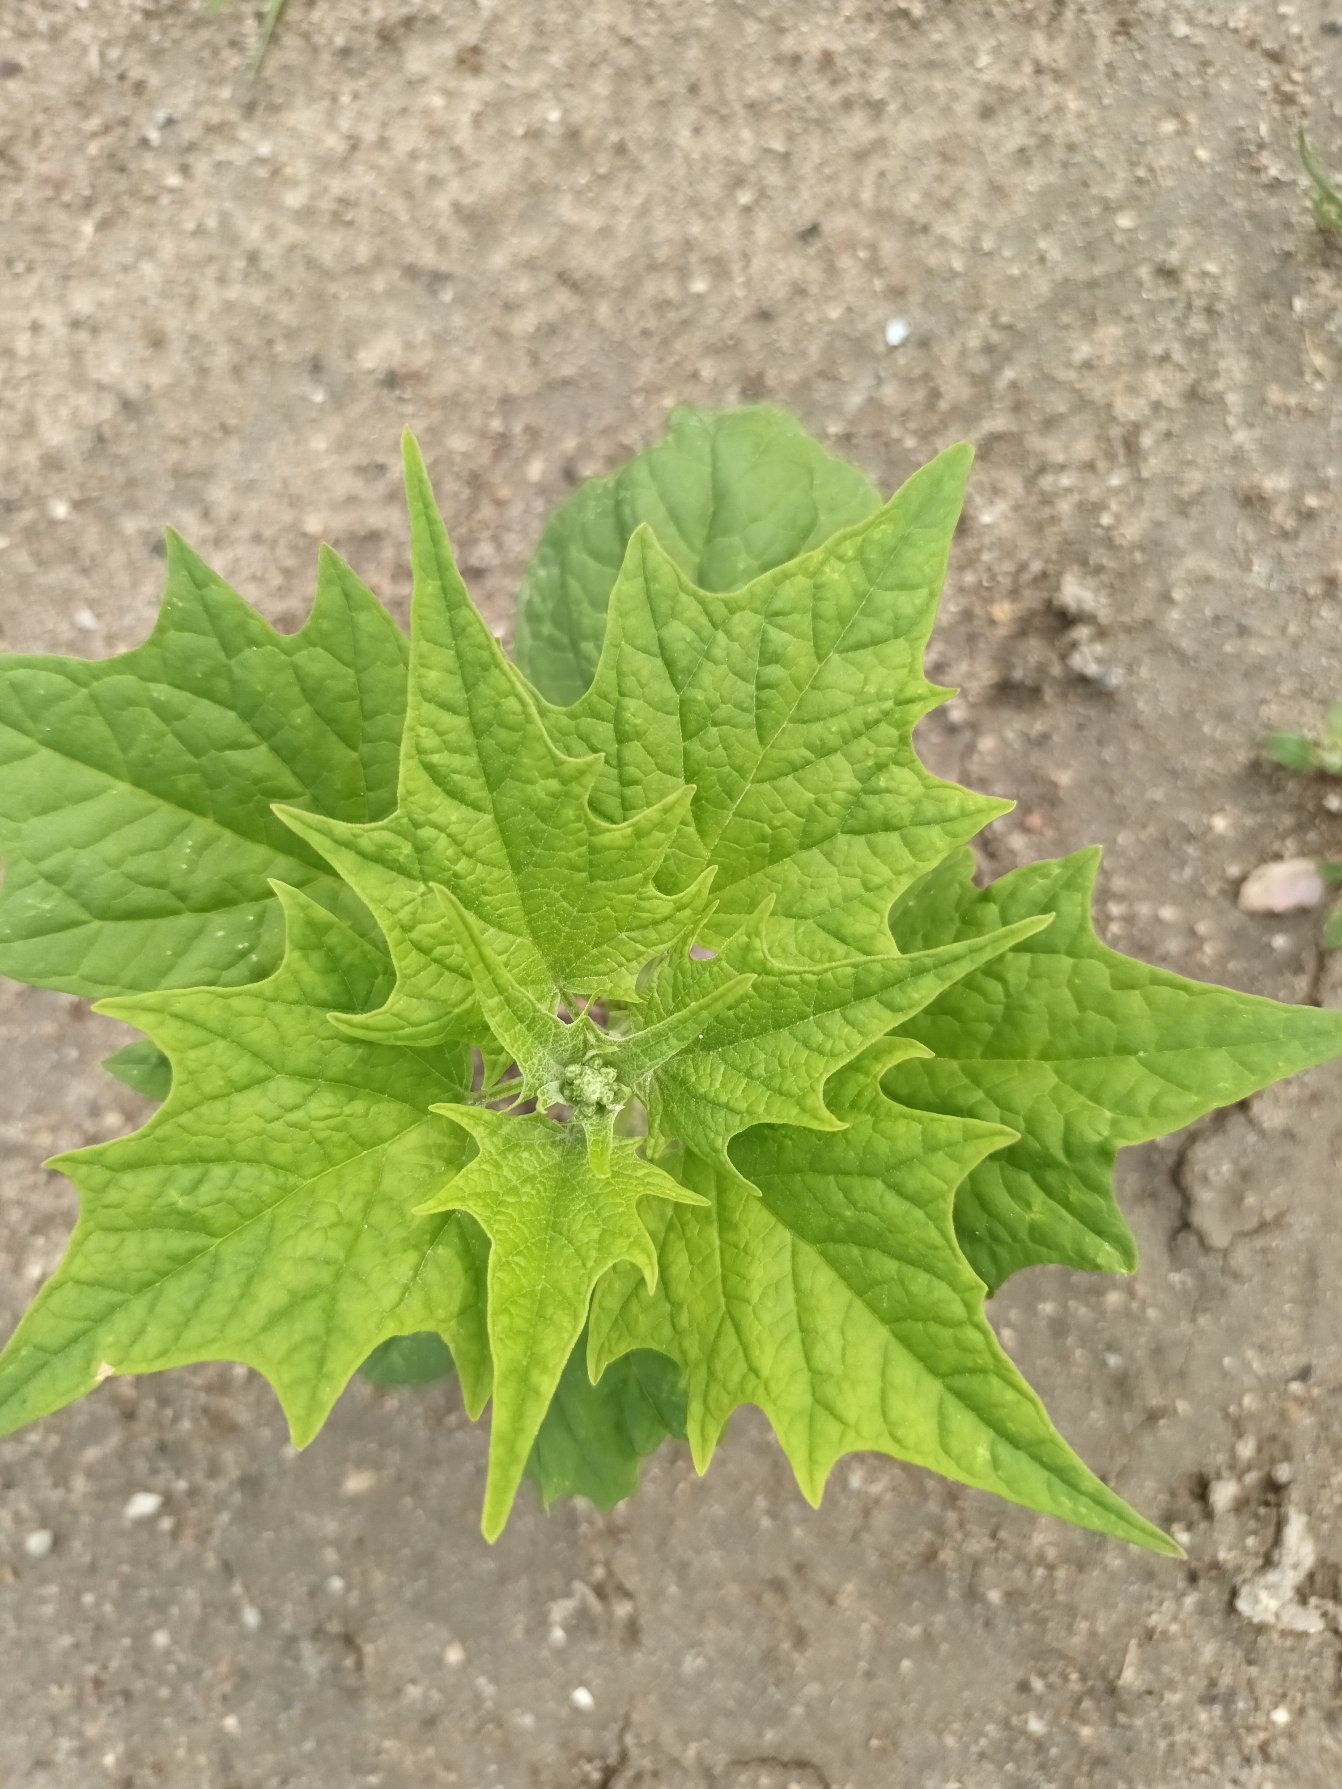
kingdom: Plantae
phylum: Tracheophyta
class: Magnoliopsida
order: Caryophyllales
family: Amaranthaceae
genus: Chenopodiastrum
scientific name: Chenopodiastrum hybridum
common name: Hjertebladet gåsefod
